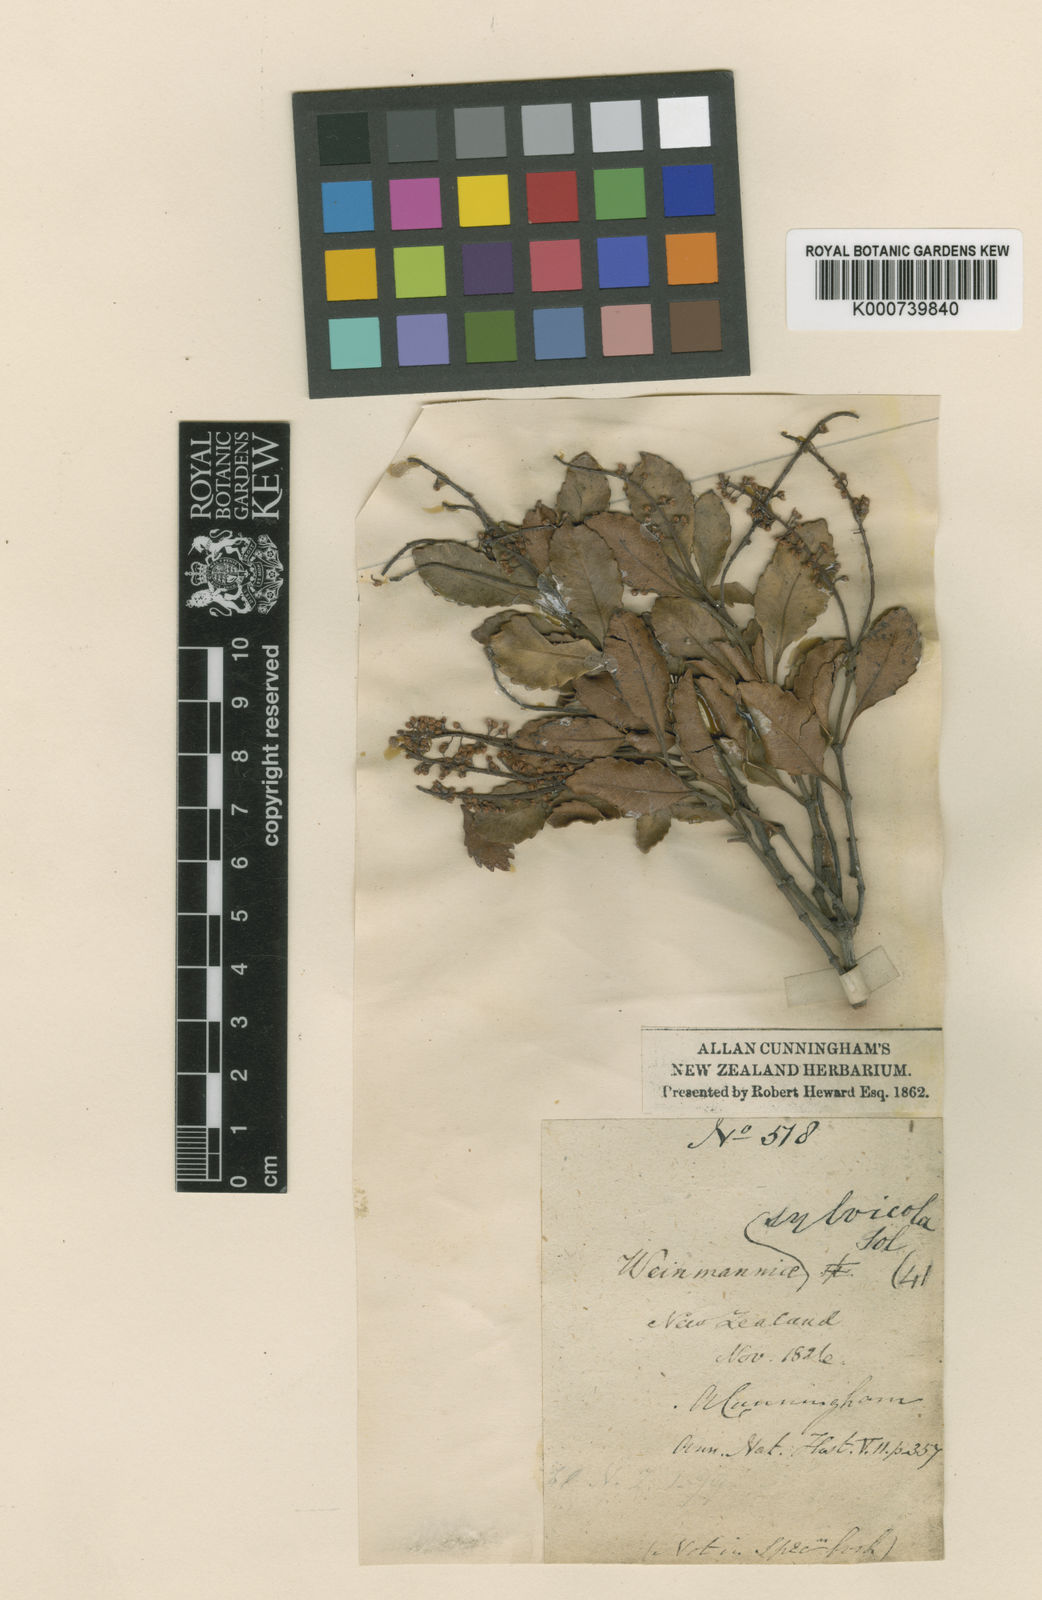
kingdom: Plantae
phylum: Tracheophyta
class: Magnoliopsida
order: Oxalidales
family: Cunoniaceae
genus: Pterophylla
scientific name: Pterophylla sylvicola
